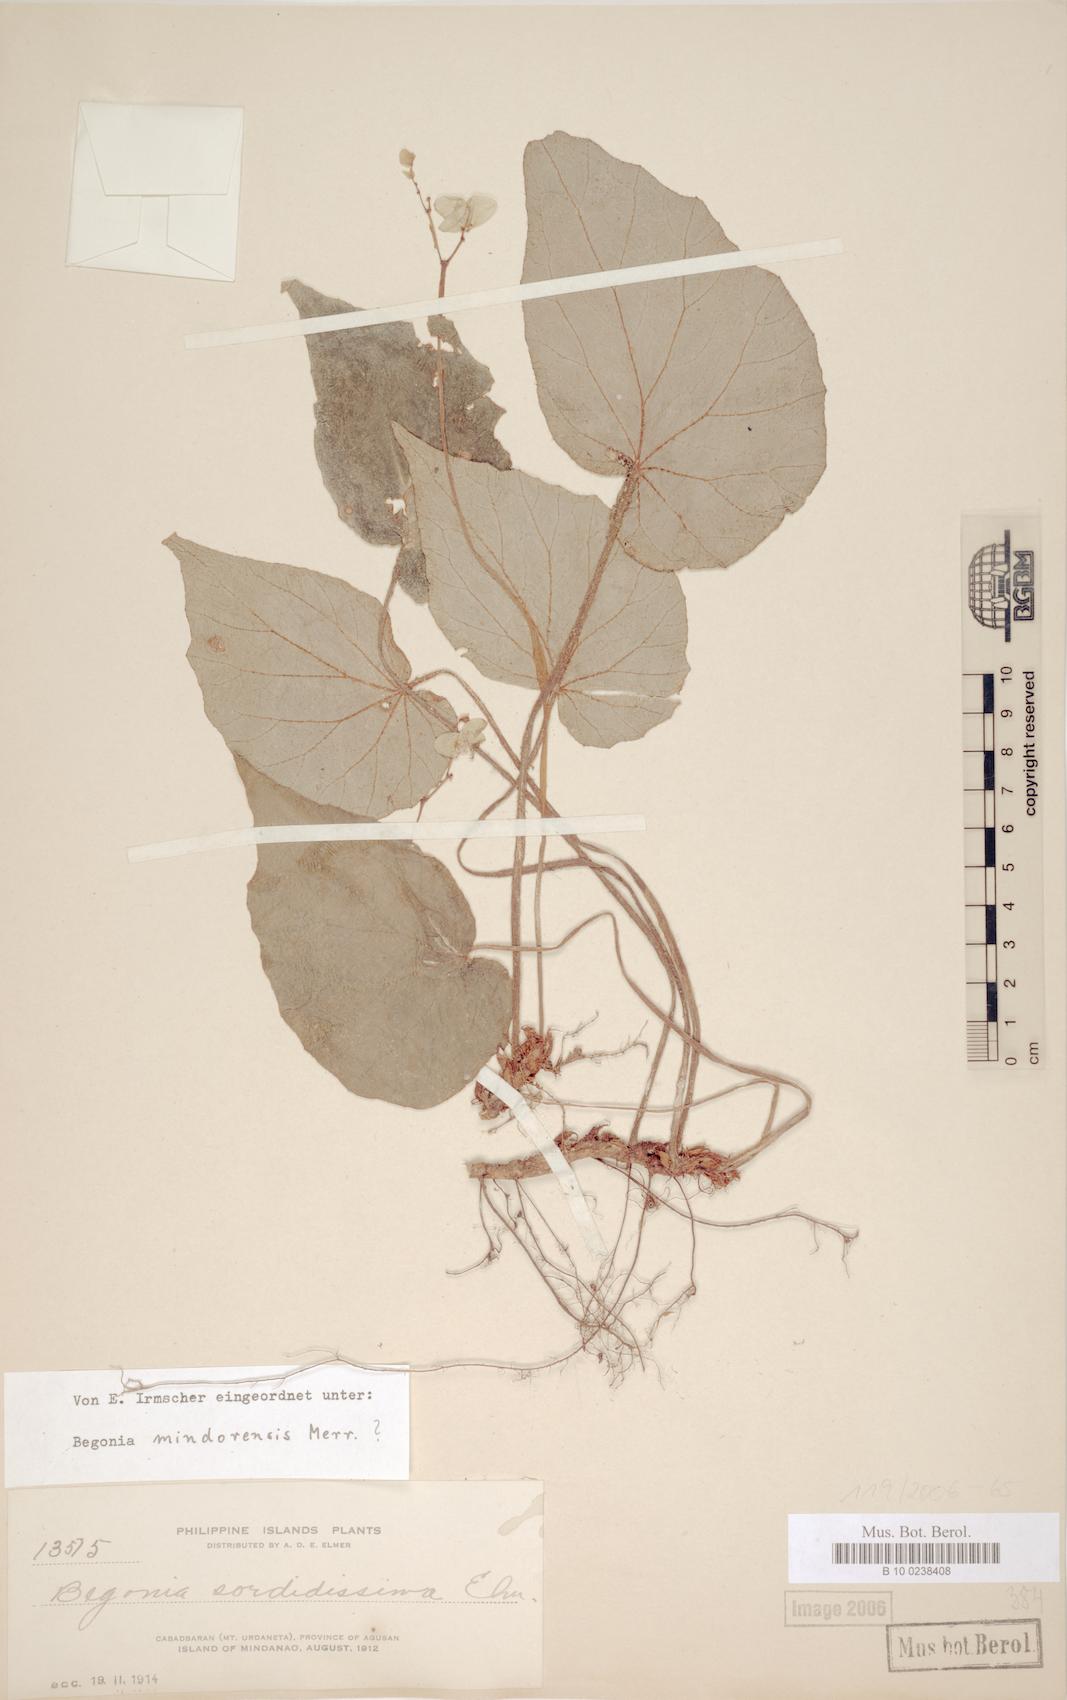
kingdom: Plantae
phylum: Tracheophyta
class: Magnoliopsida
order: Cucurbitales
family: Begoniaceae
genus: Begonia
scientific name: Begonia mindorensis
